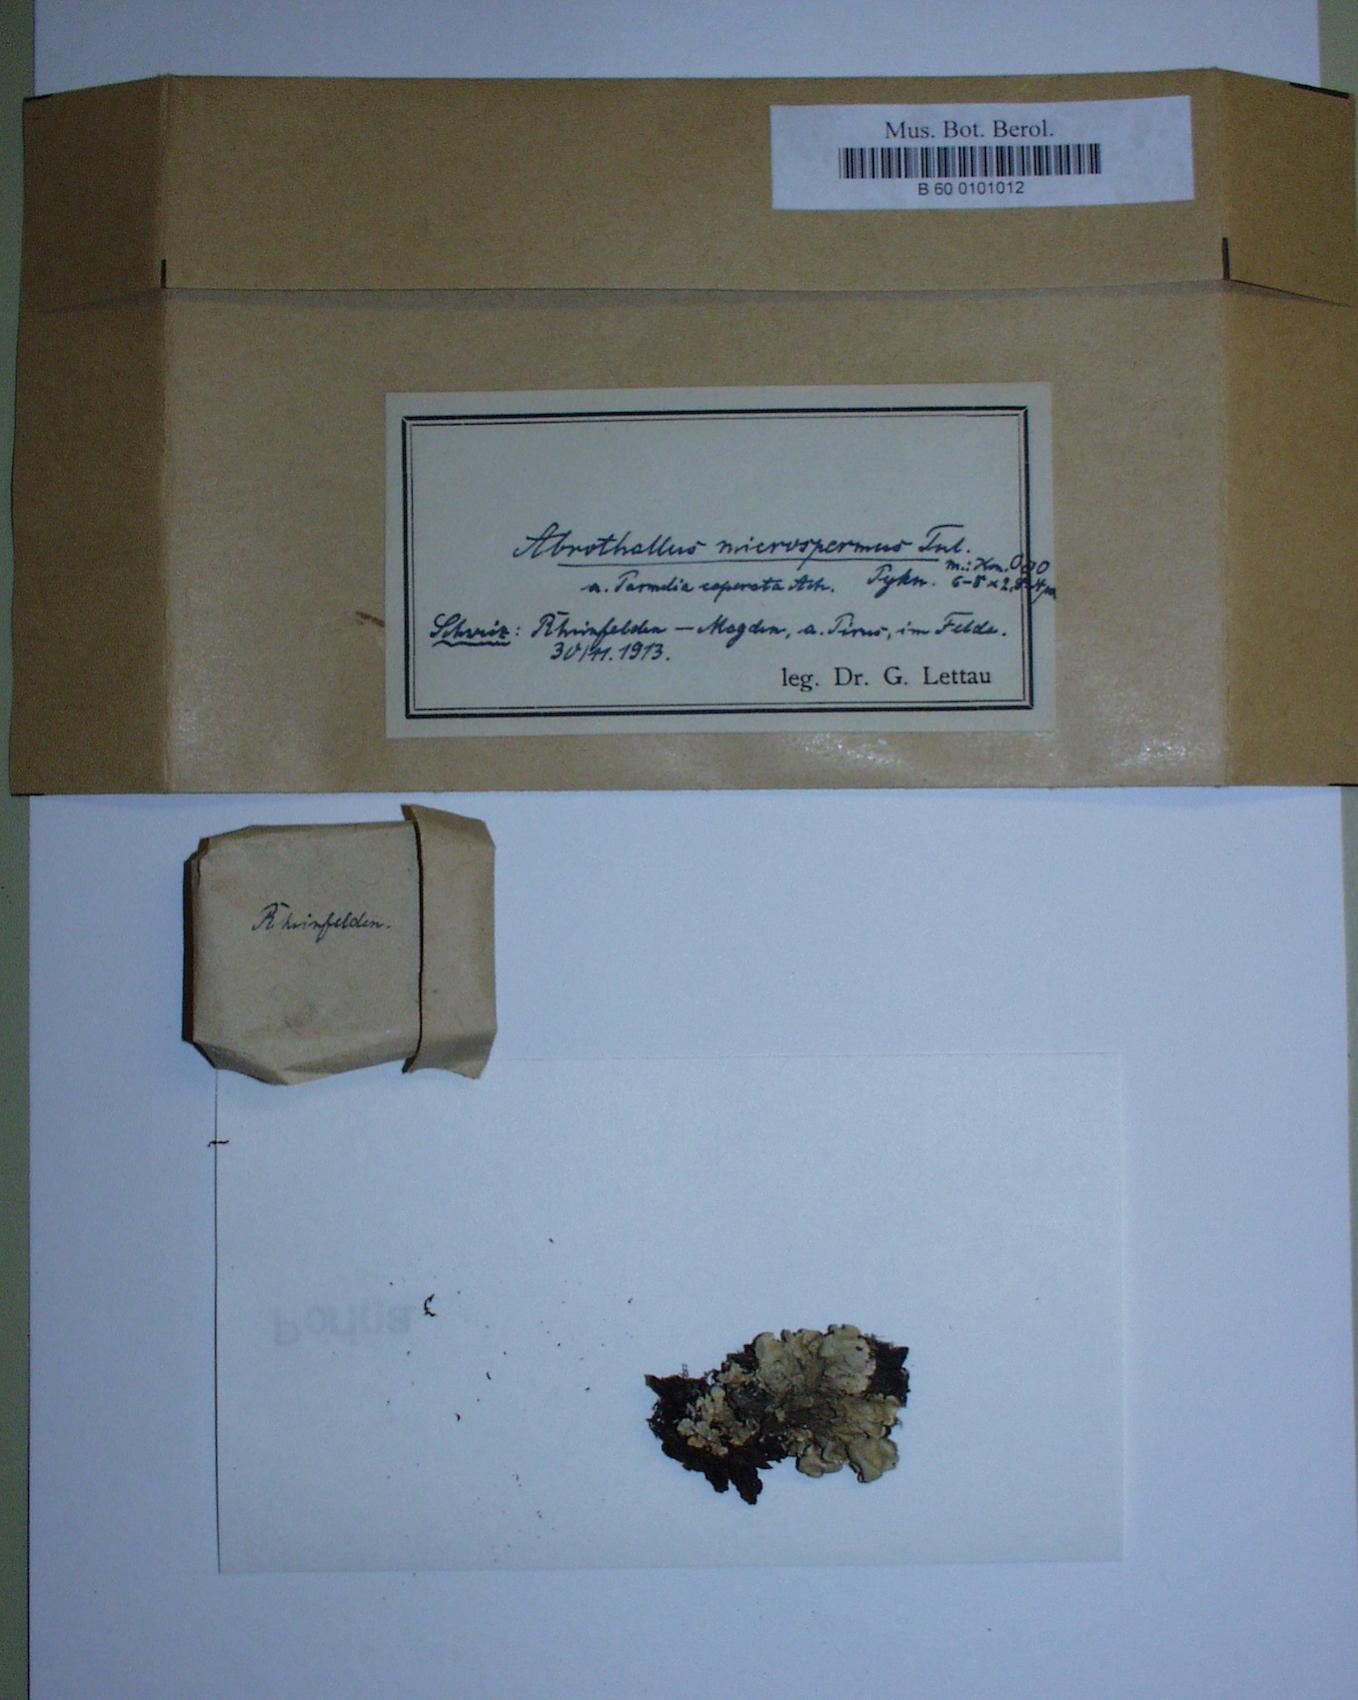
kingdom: Fungi
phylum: Ascomycota
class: Dothideomycetes
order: Abrothallales
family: Abrothallaceae
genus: Abrothallus
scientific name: Abrothallus microspermus
